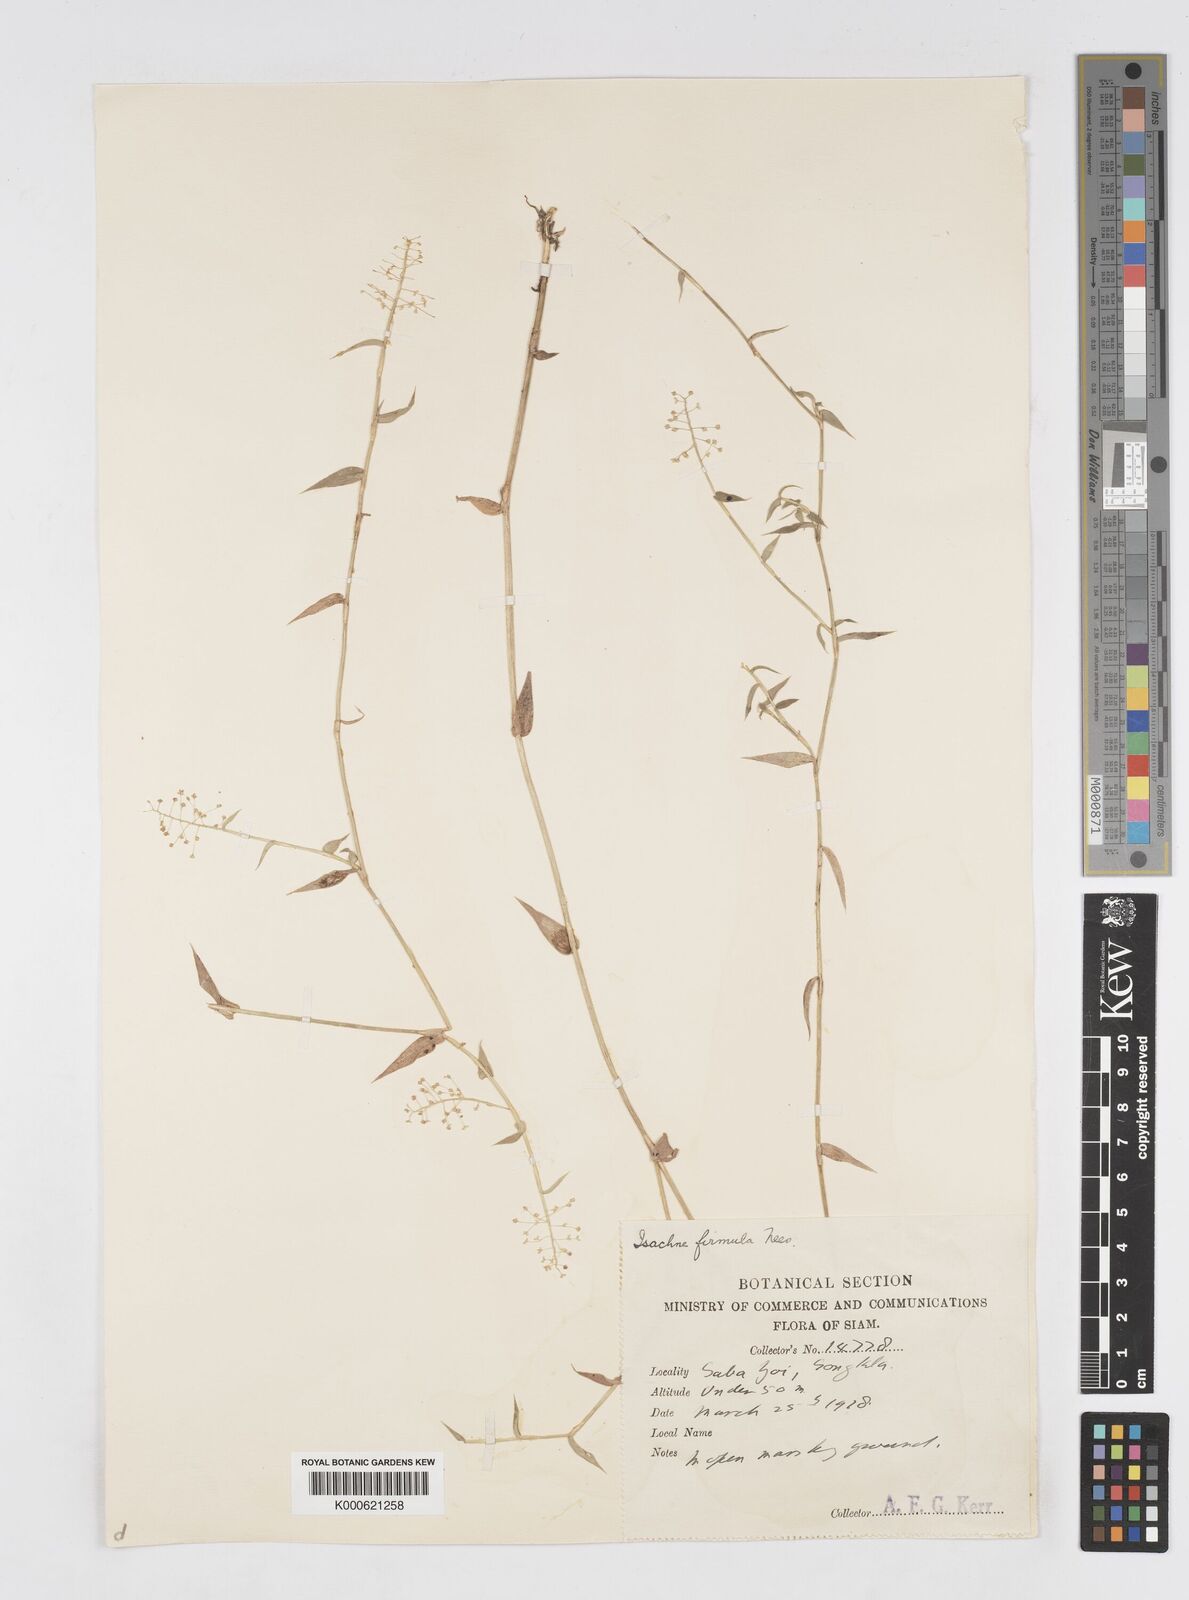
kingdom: Plantae
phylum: Tracheophyta
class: Liliopsida
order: Poales
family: Poaceae
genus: Isachne
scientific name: Isachne confusa
